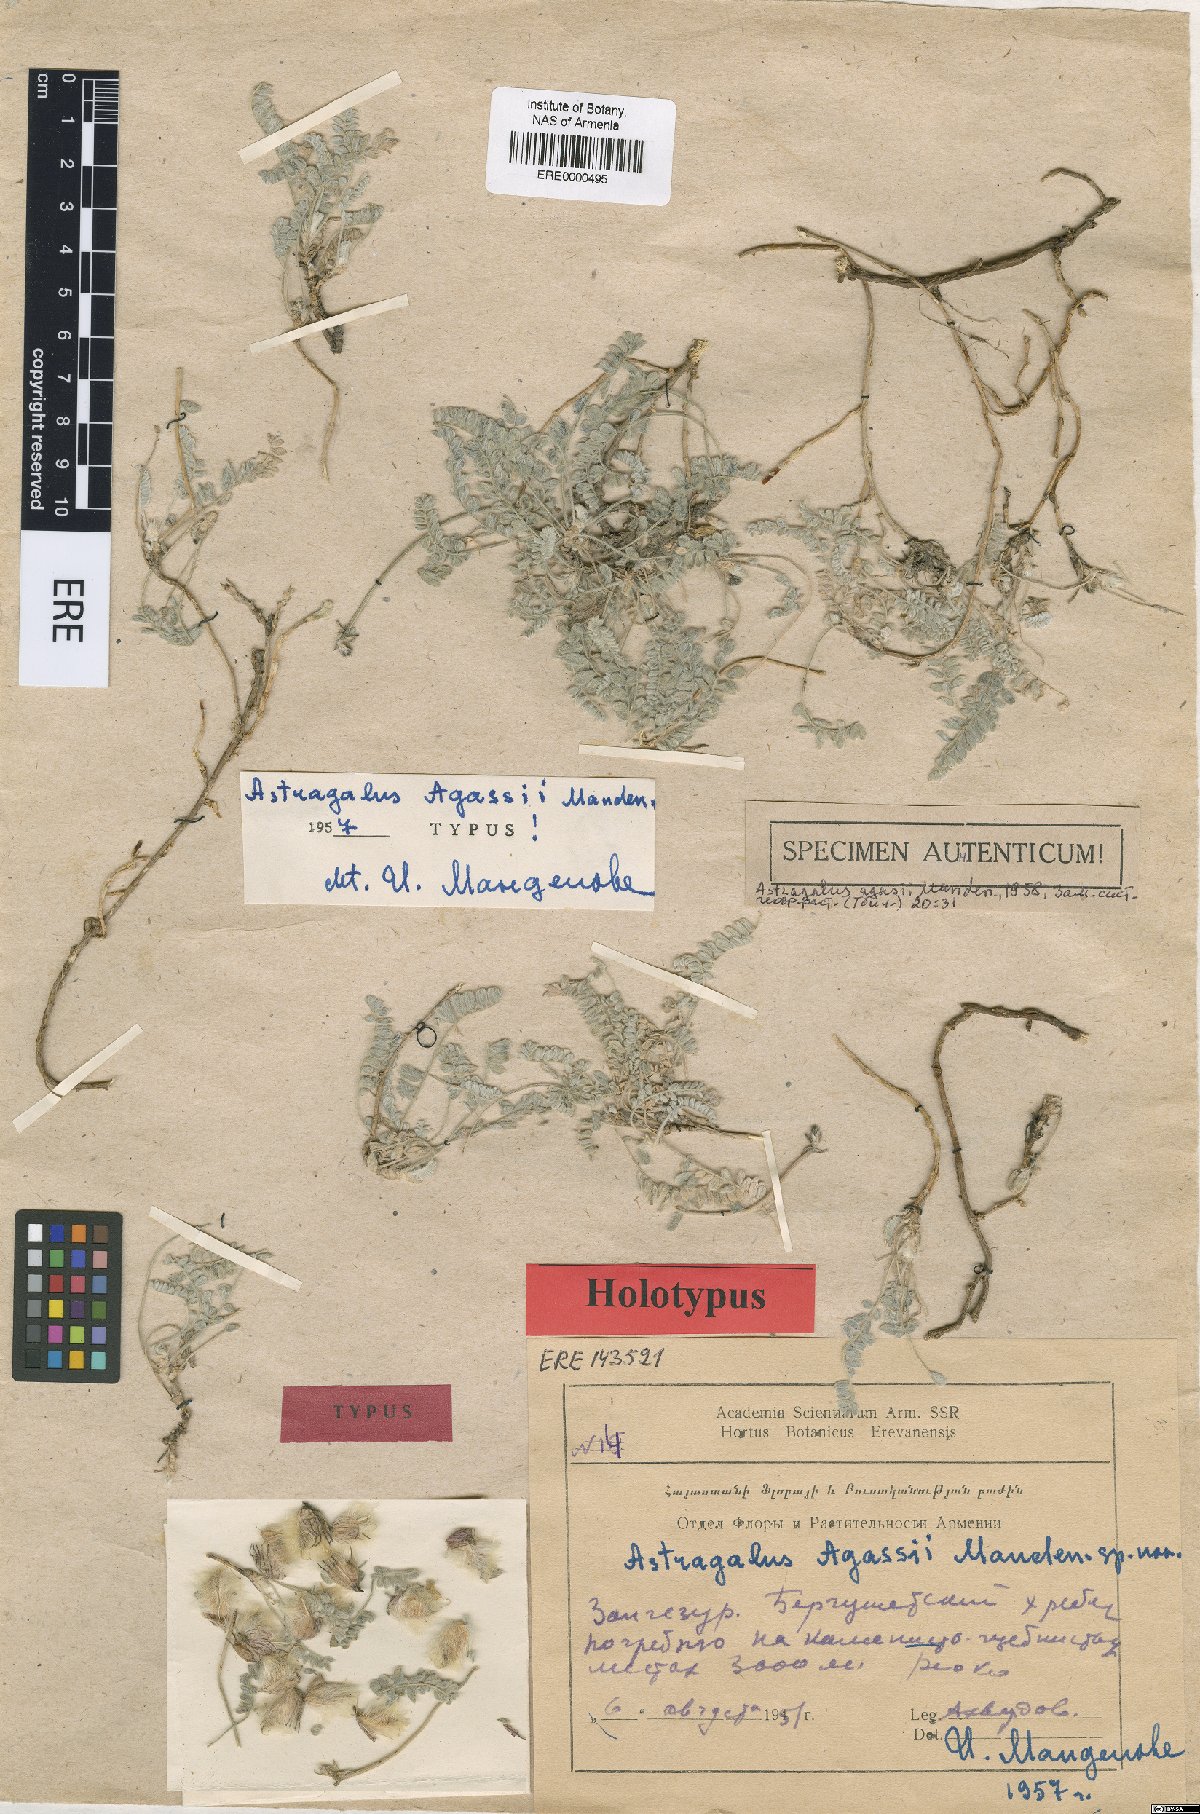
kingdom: Plantae
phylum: Tracheophyta
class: Magnoliopsida
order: Fabales
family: Fabaceae
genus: Astragalus
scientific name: Astragalus agassii
